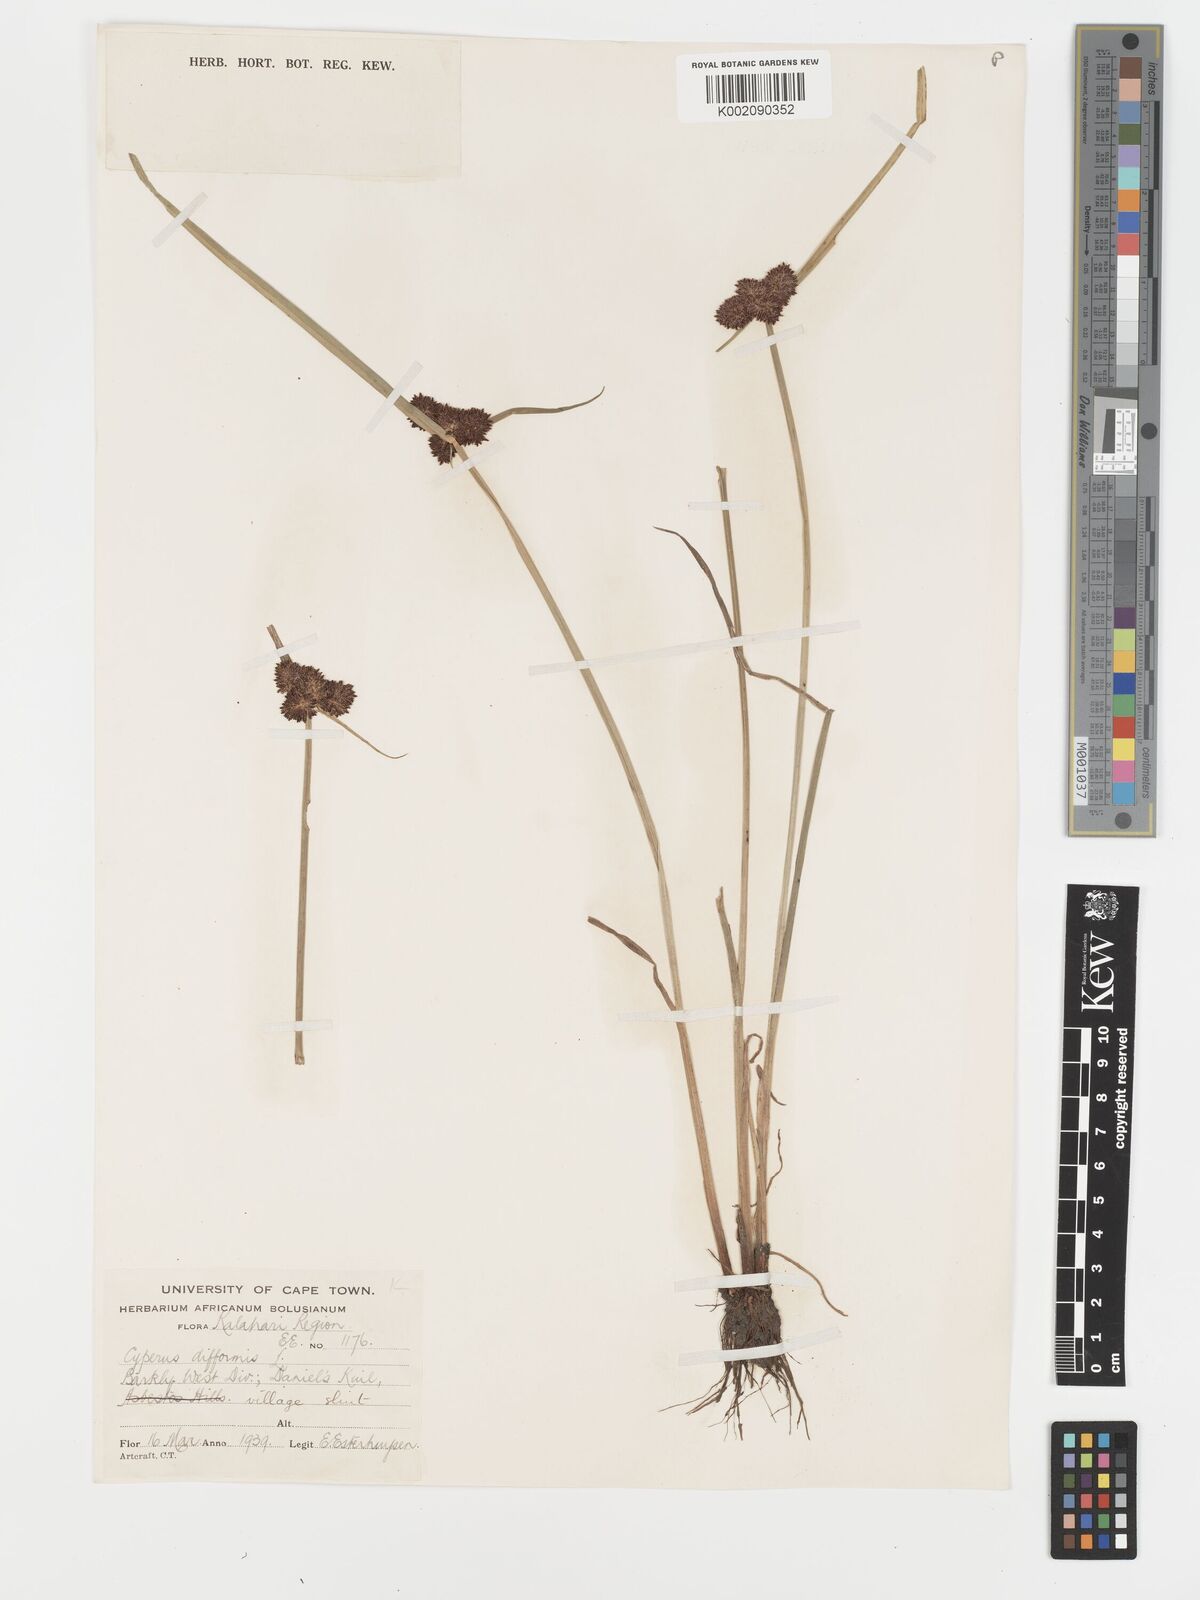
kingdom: Plantae
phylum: Tracheophyta
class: Liliopsida
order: Poales
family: Cyperaceae
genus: Cyperus
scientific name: Cyperus difformis
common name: Variable flatsedge
